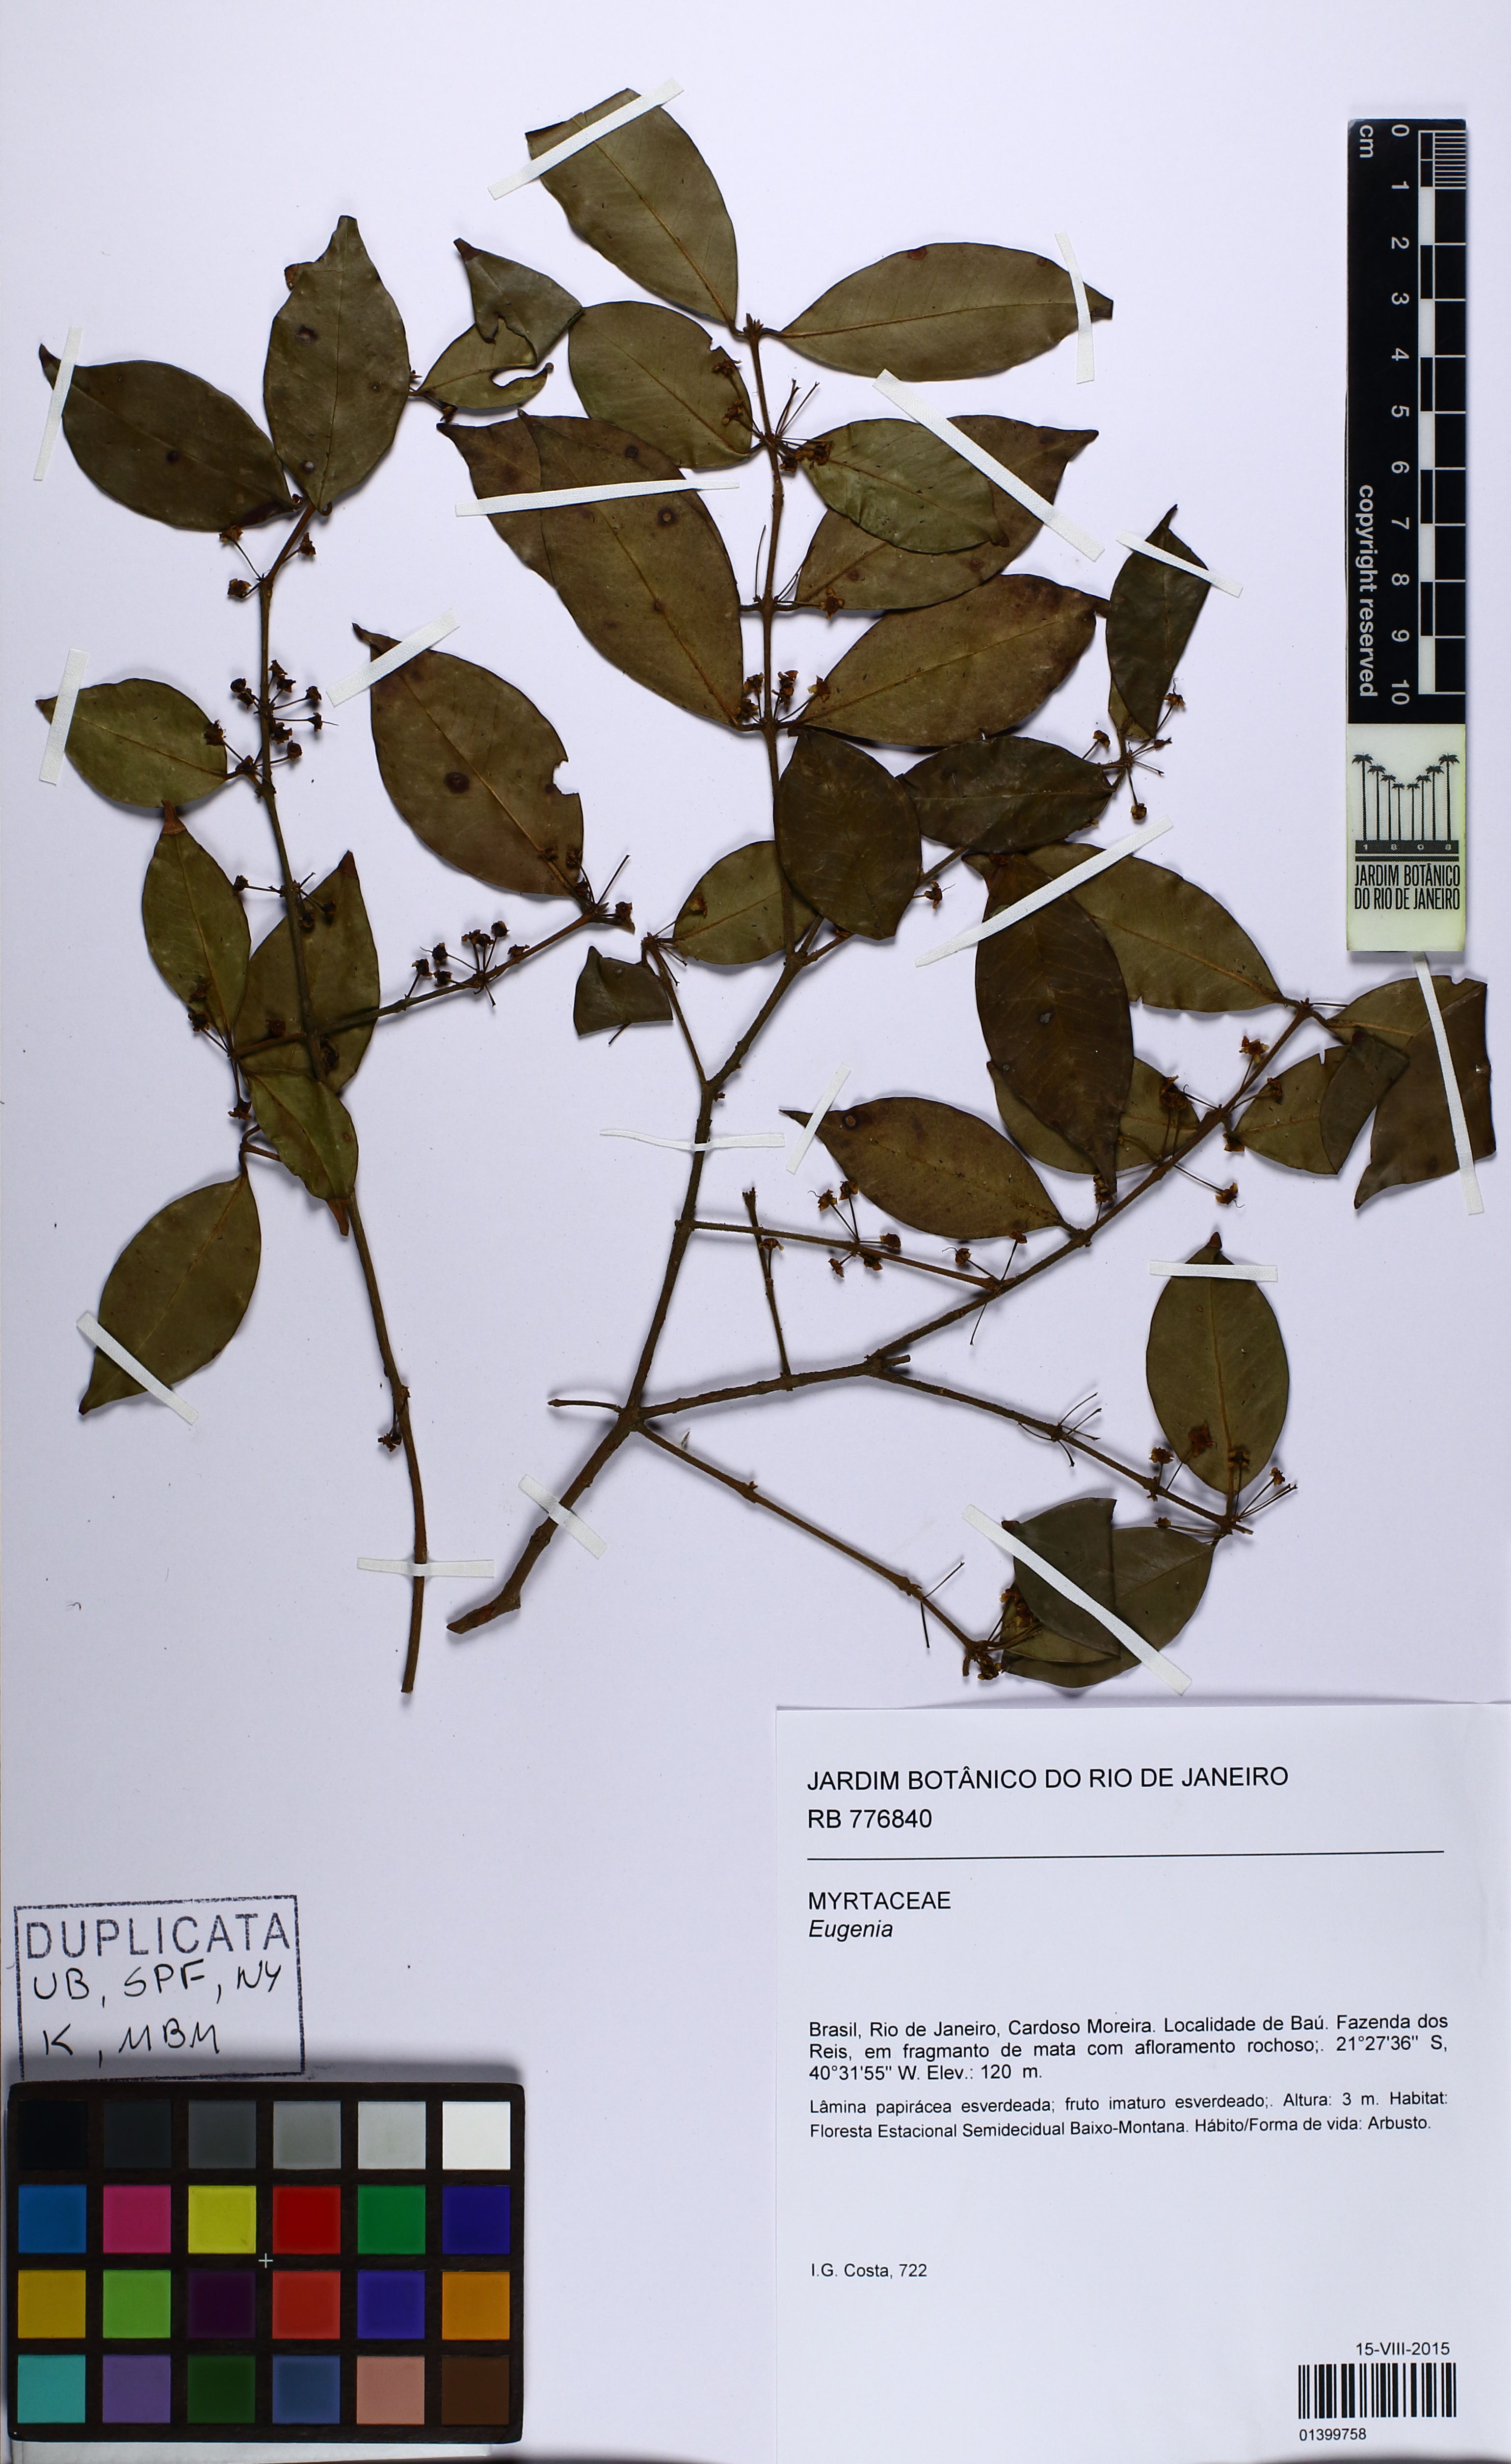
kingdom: Plantae
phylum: Tracheophyta
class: Magnoliopsida
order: Myrtales
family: Myrtaceae
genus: Eugenia
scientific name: Eugenia
